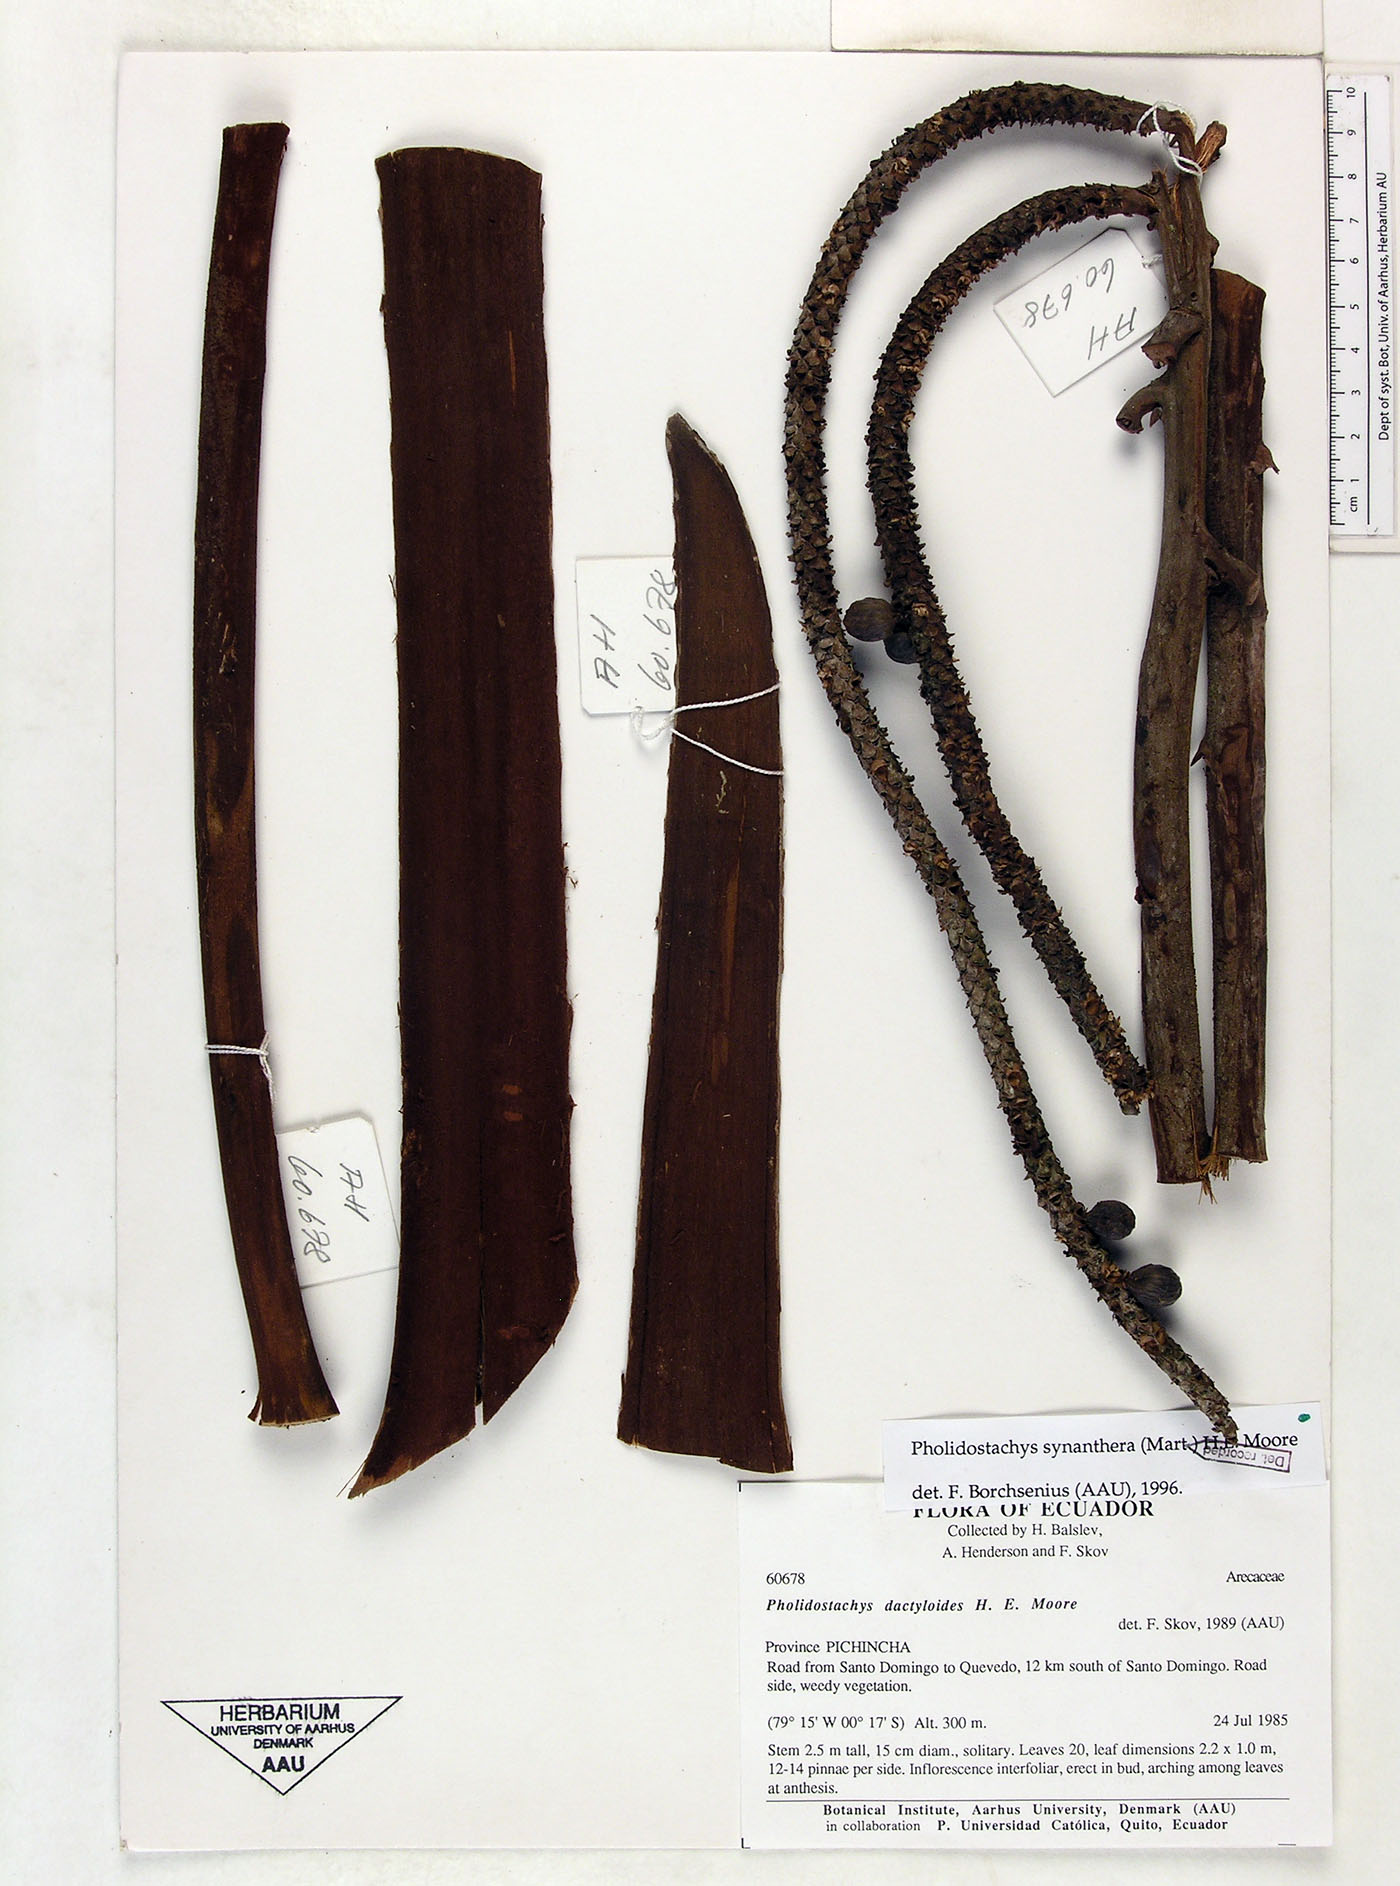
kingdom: Plantae
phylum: Tracheophyta
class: Liliopsida
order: Arecales
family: Arecaceae
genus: Pholidostachys
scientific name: Pholidostachys occidentalis
